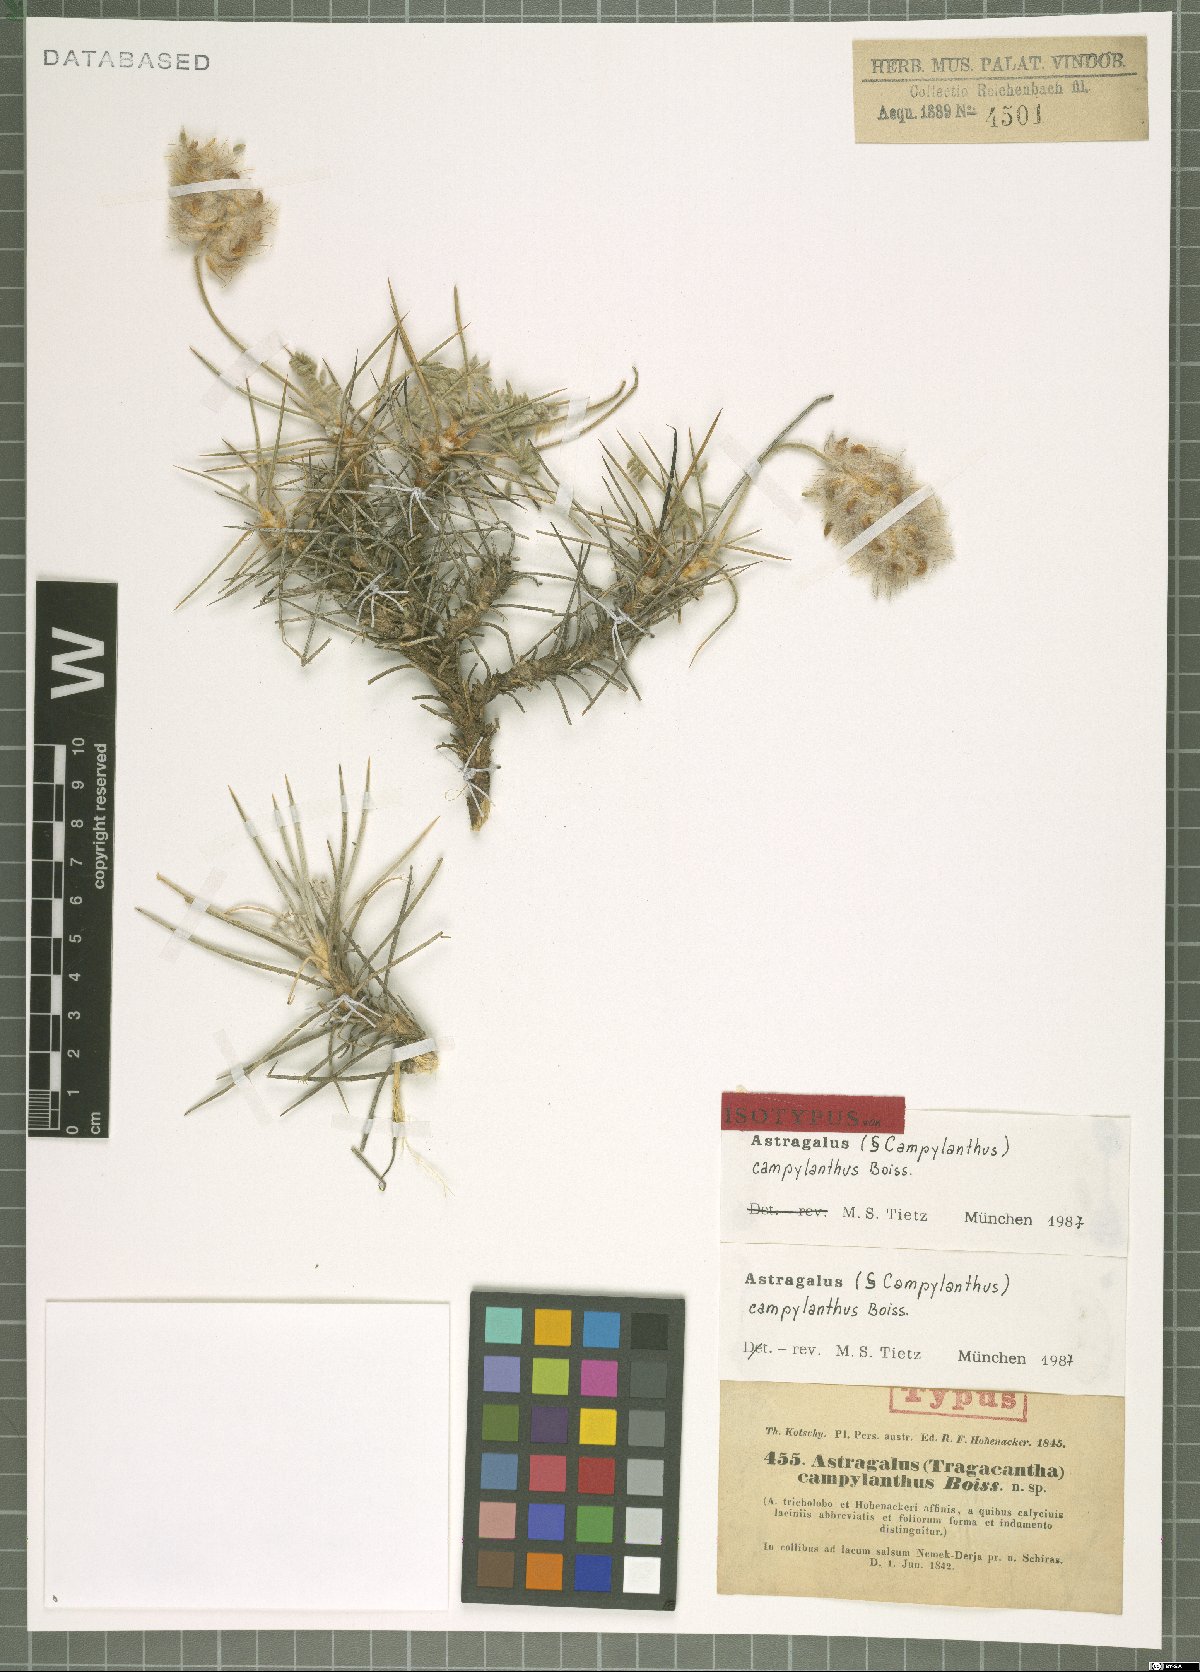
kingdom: Plantae
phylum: Tracheophyta
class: Magnoliopsida
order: Fabales
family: Fabaceae
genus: Astragalus
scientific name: Astragalus campylanthus
